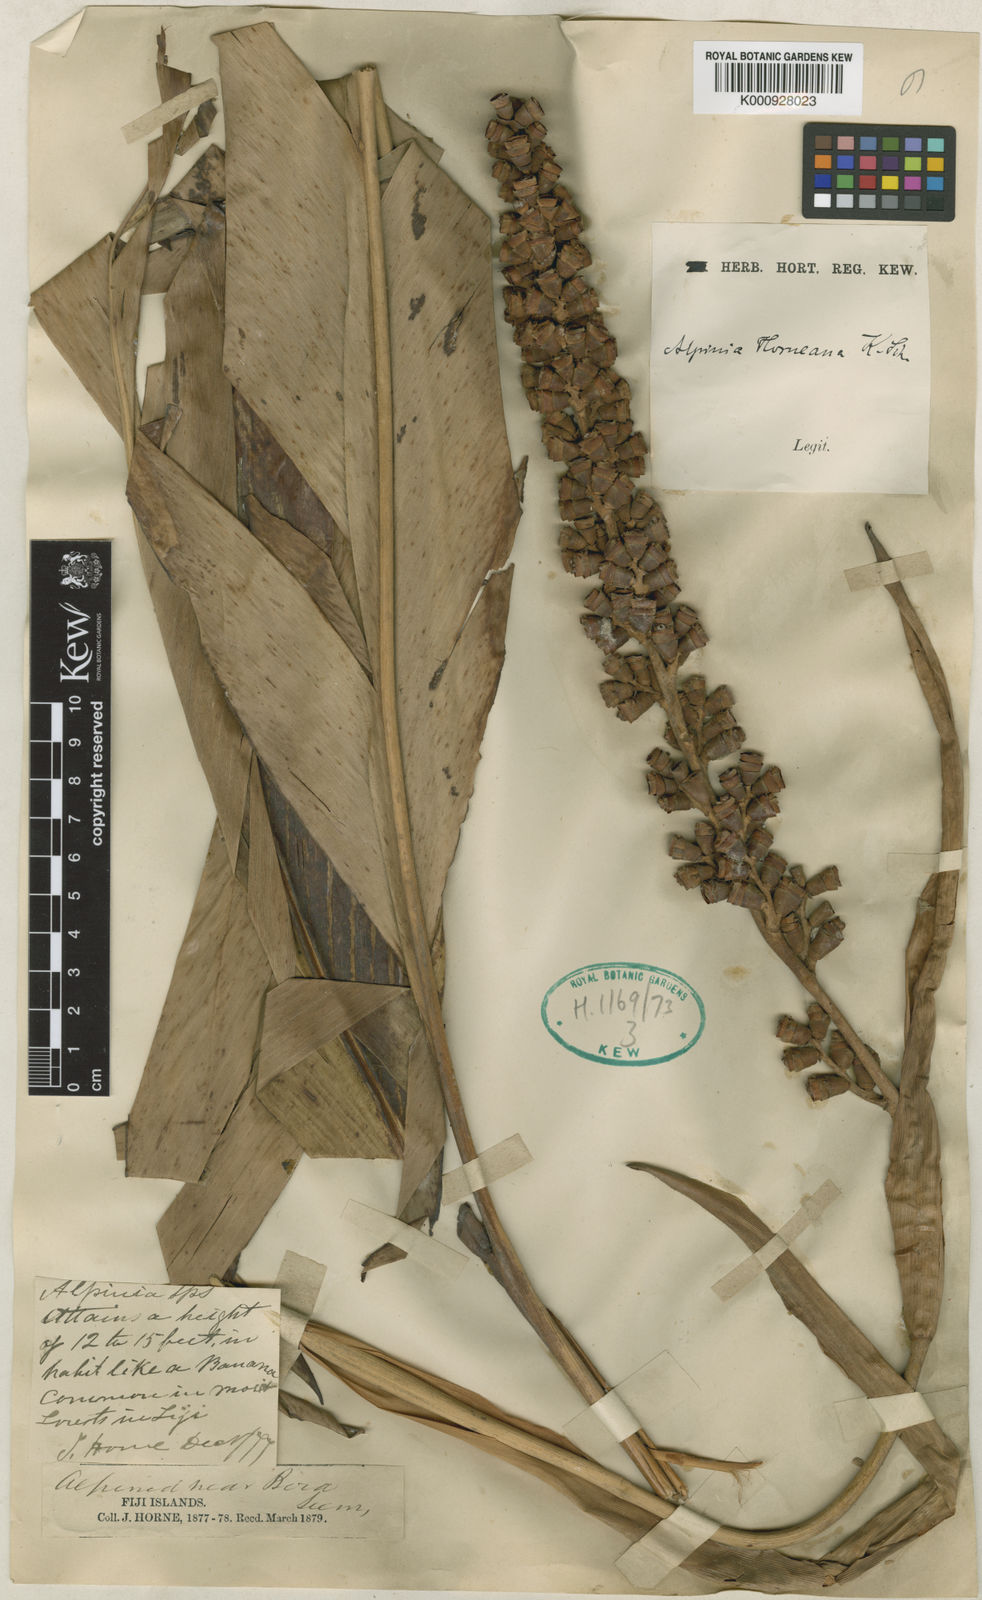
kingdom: Plantae
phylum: Tracheophyta
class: Liliopsida
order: Zingiberales
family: Zingiberaceae
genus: Alpinia
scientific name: Alpinia horneana
